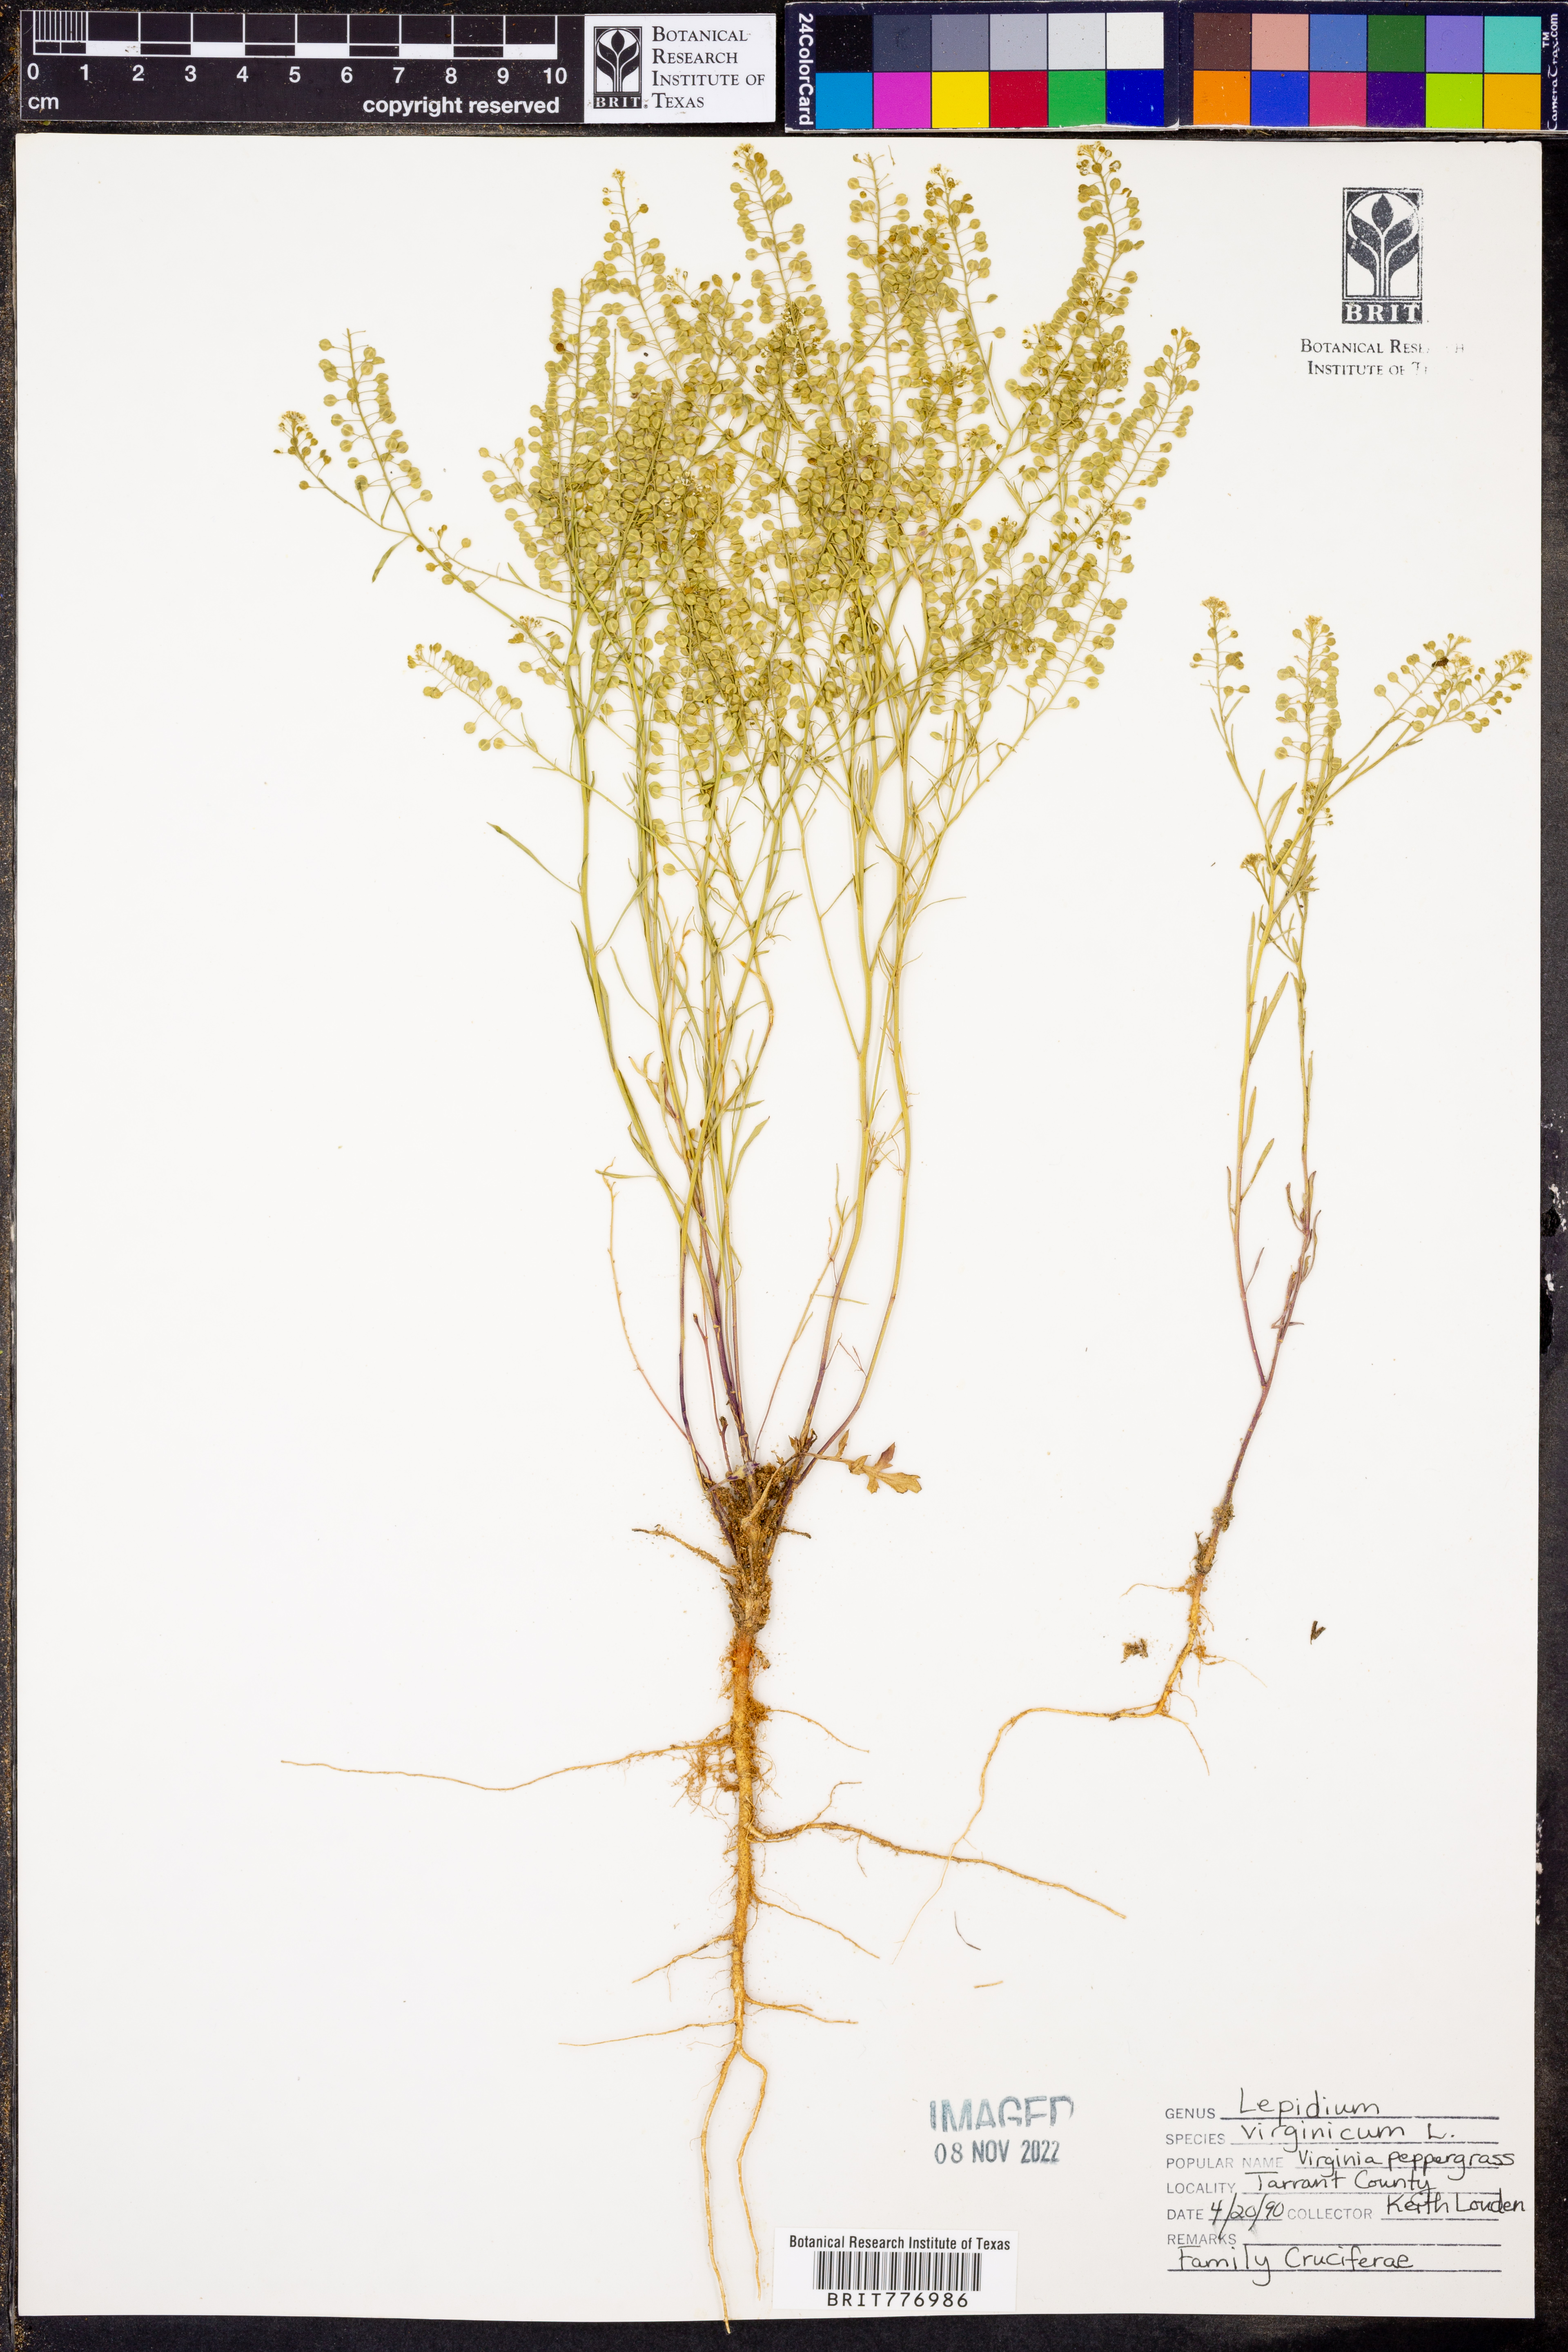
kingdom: Plantae
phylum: Tracheophyta
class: Magnoliopsida
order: Brassicales
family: Brassicaceae
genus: Lepidium
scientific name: Lepidium virginicum
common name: Least pepperwort
